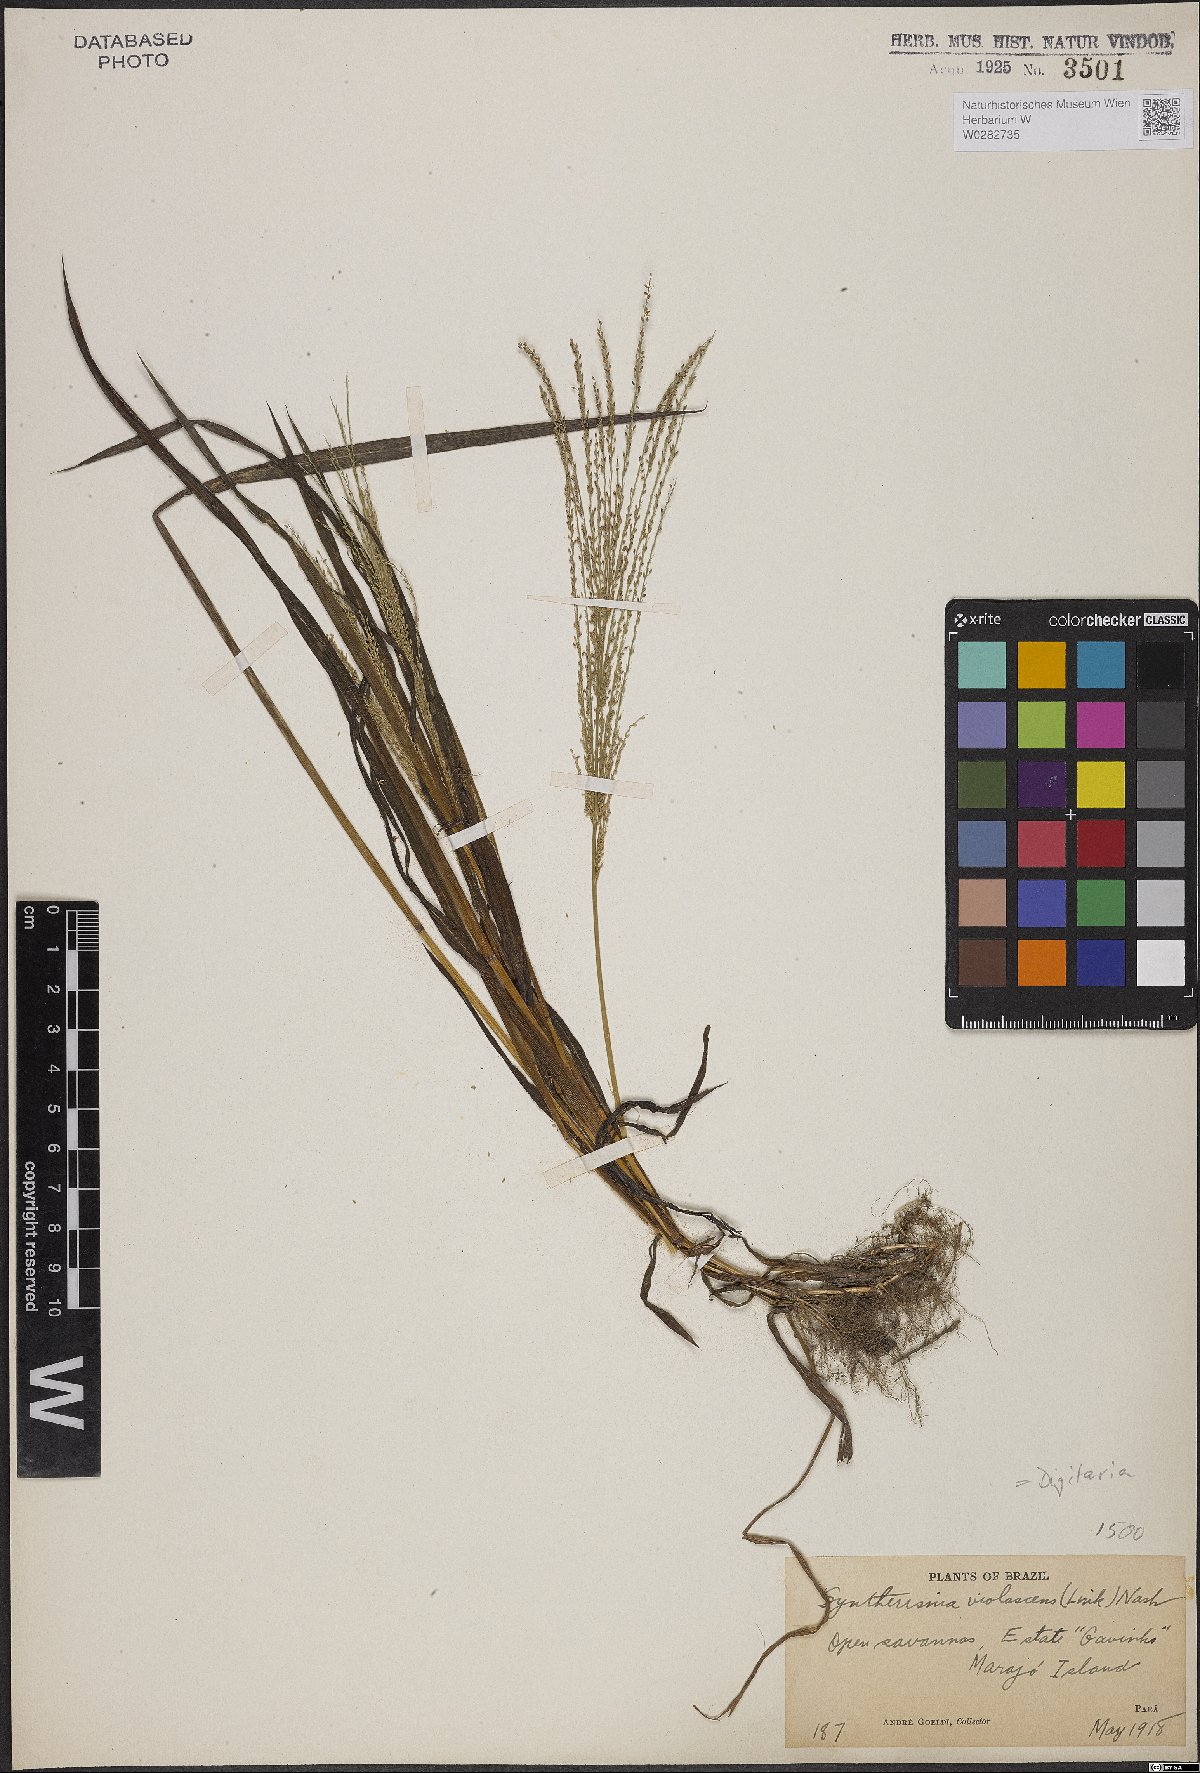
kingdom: Plantae
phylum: Tracheophyta
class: Liliopsida
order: Poales
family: Poaceae
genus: Digitaria
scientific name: Digitaria violascens
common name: Violet crabgrass
